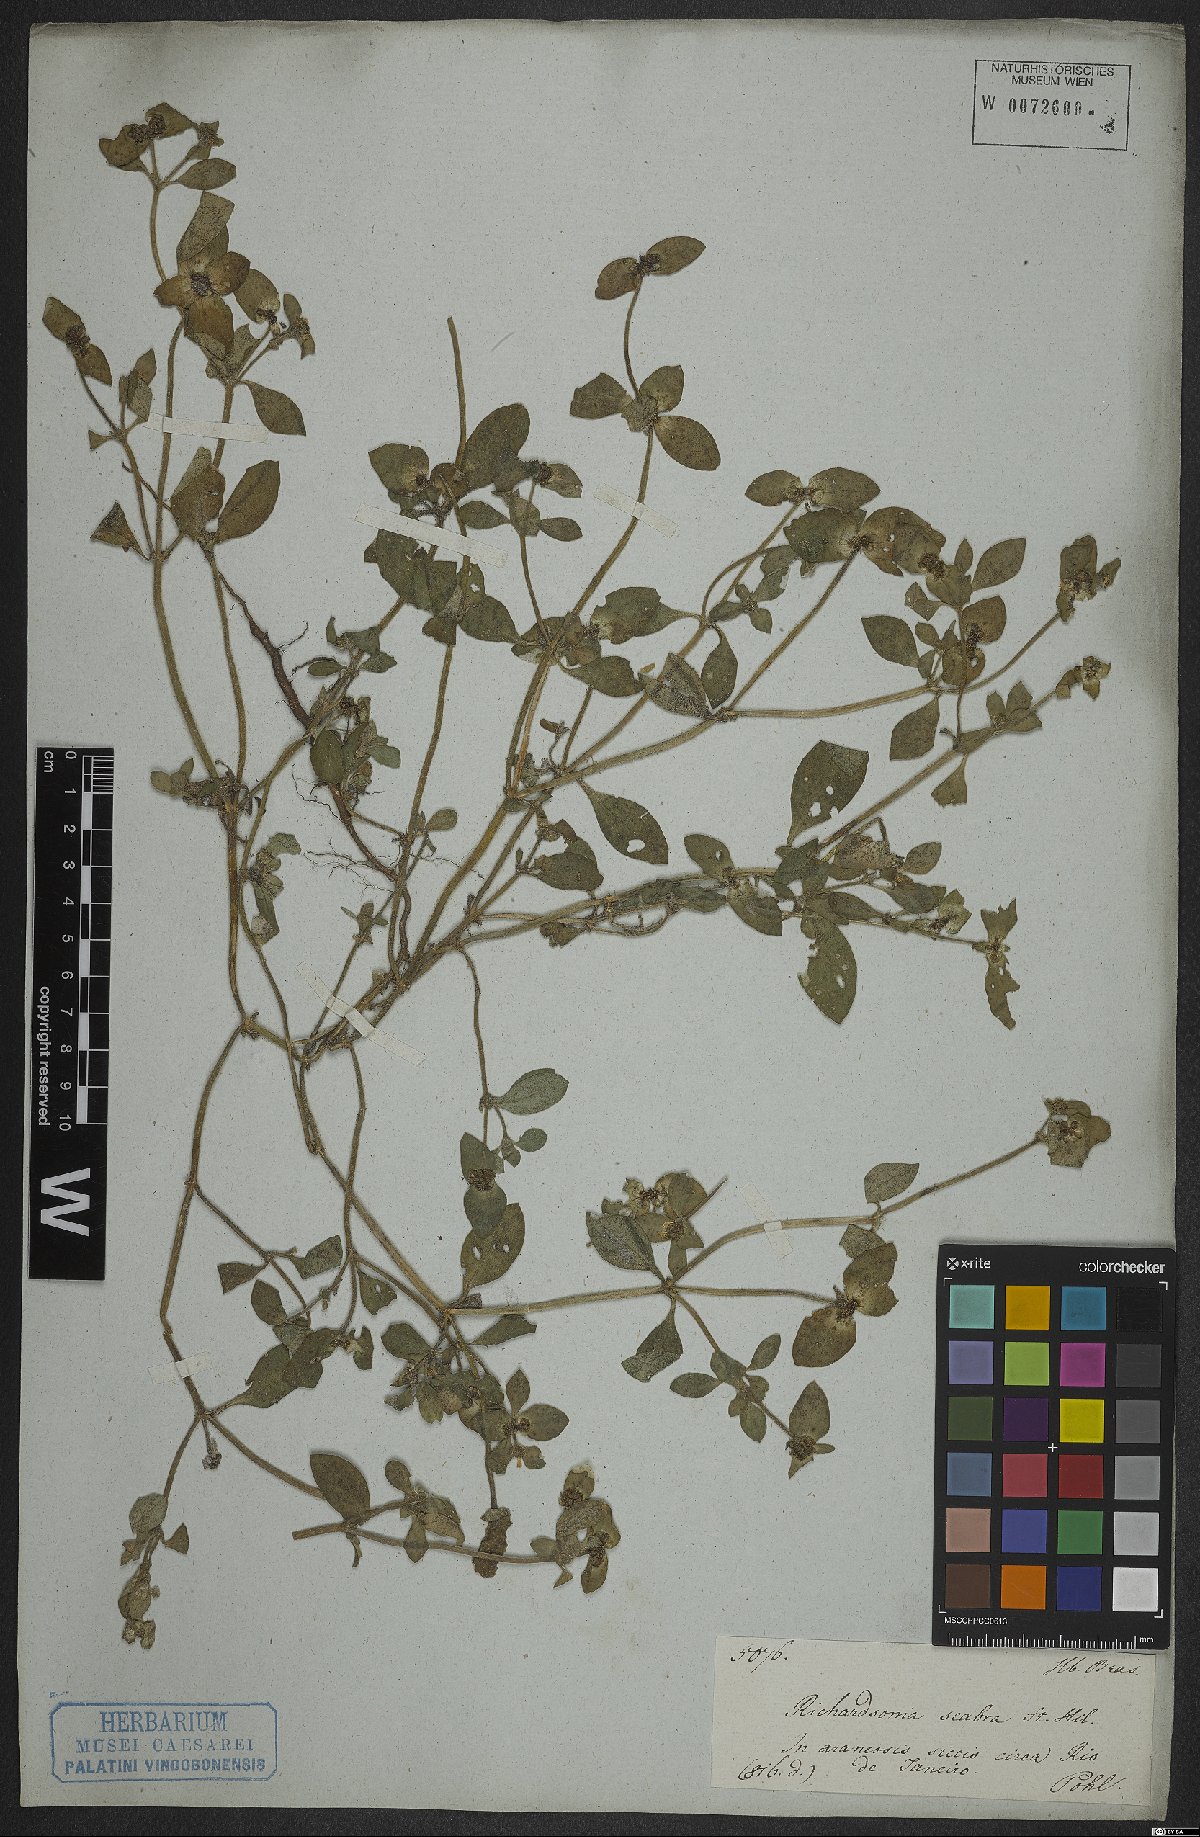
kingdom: Plantae
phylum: Tracheophyta
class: Magnoliopsida
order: Gentianales
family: Rubiaceae
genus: Richardia
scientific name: Richardia scabra
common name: Rough mexican clover
